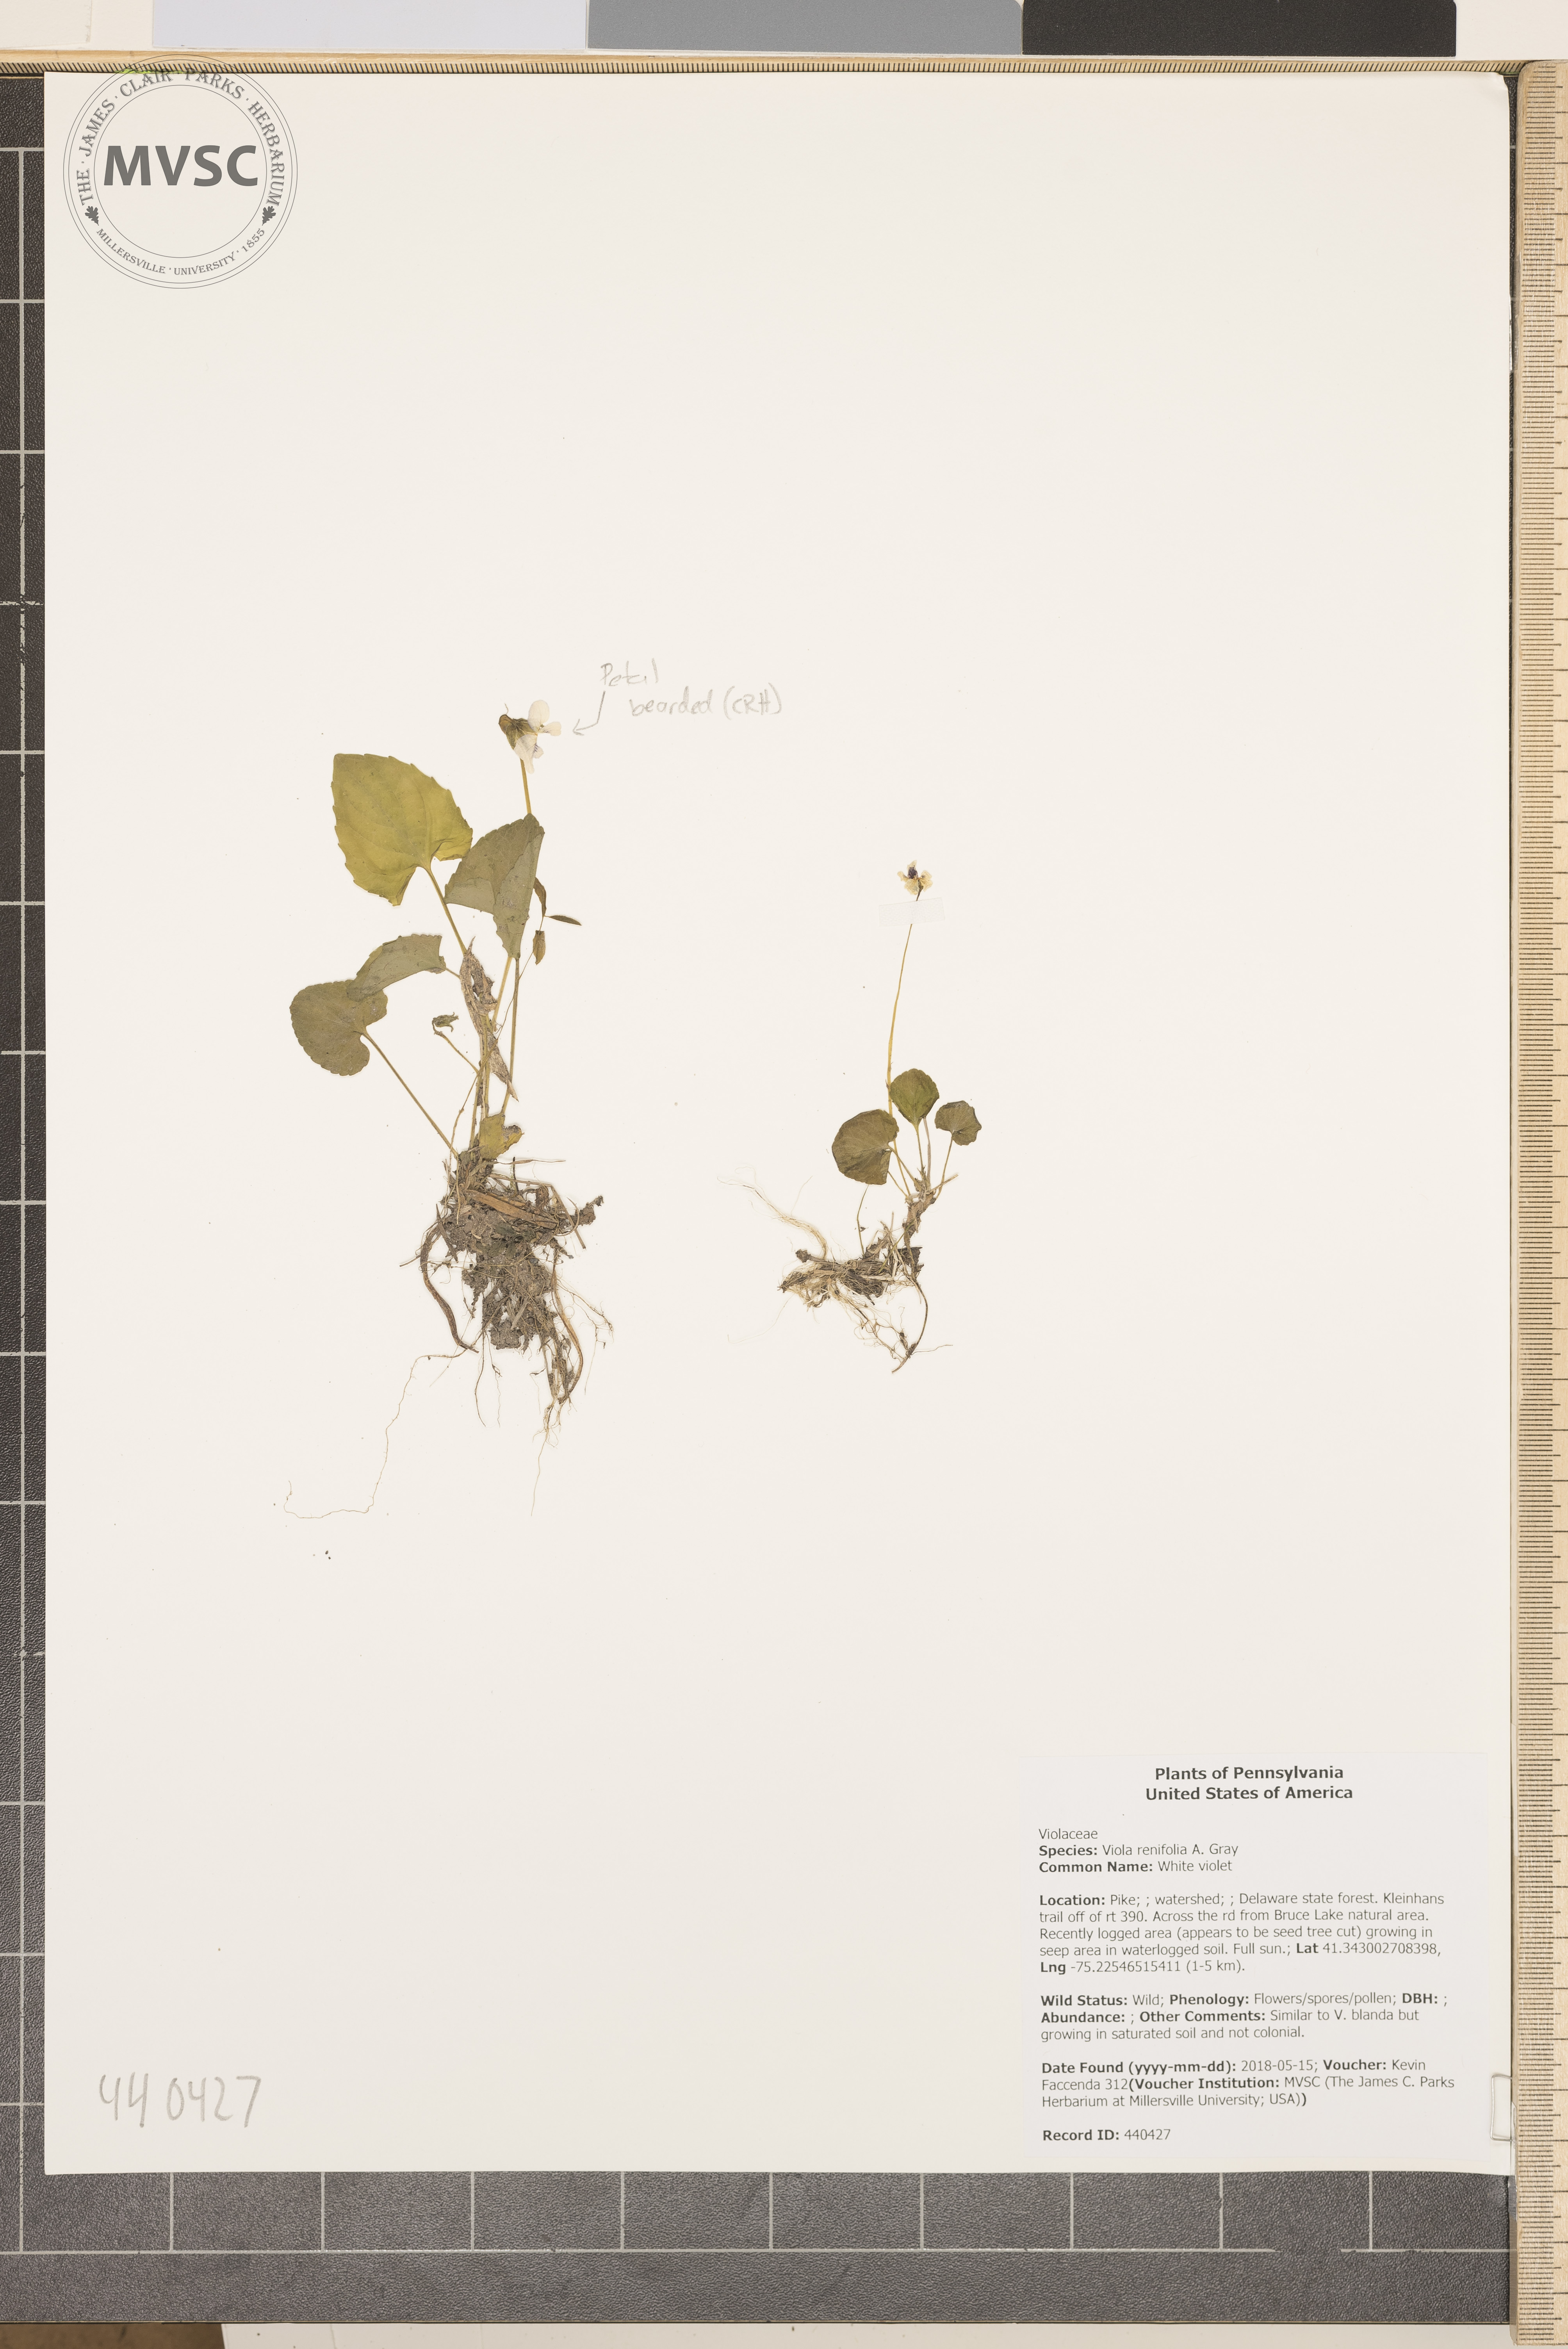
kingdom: Plantae
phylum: Tracheophyta
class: Magnoliopsida
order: Malpighiales
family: Violaceae
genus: Viola
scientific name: Viola renifolia
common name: White violet
